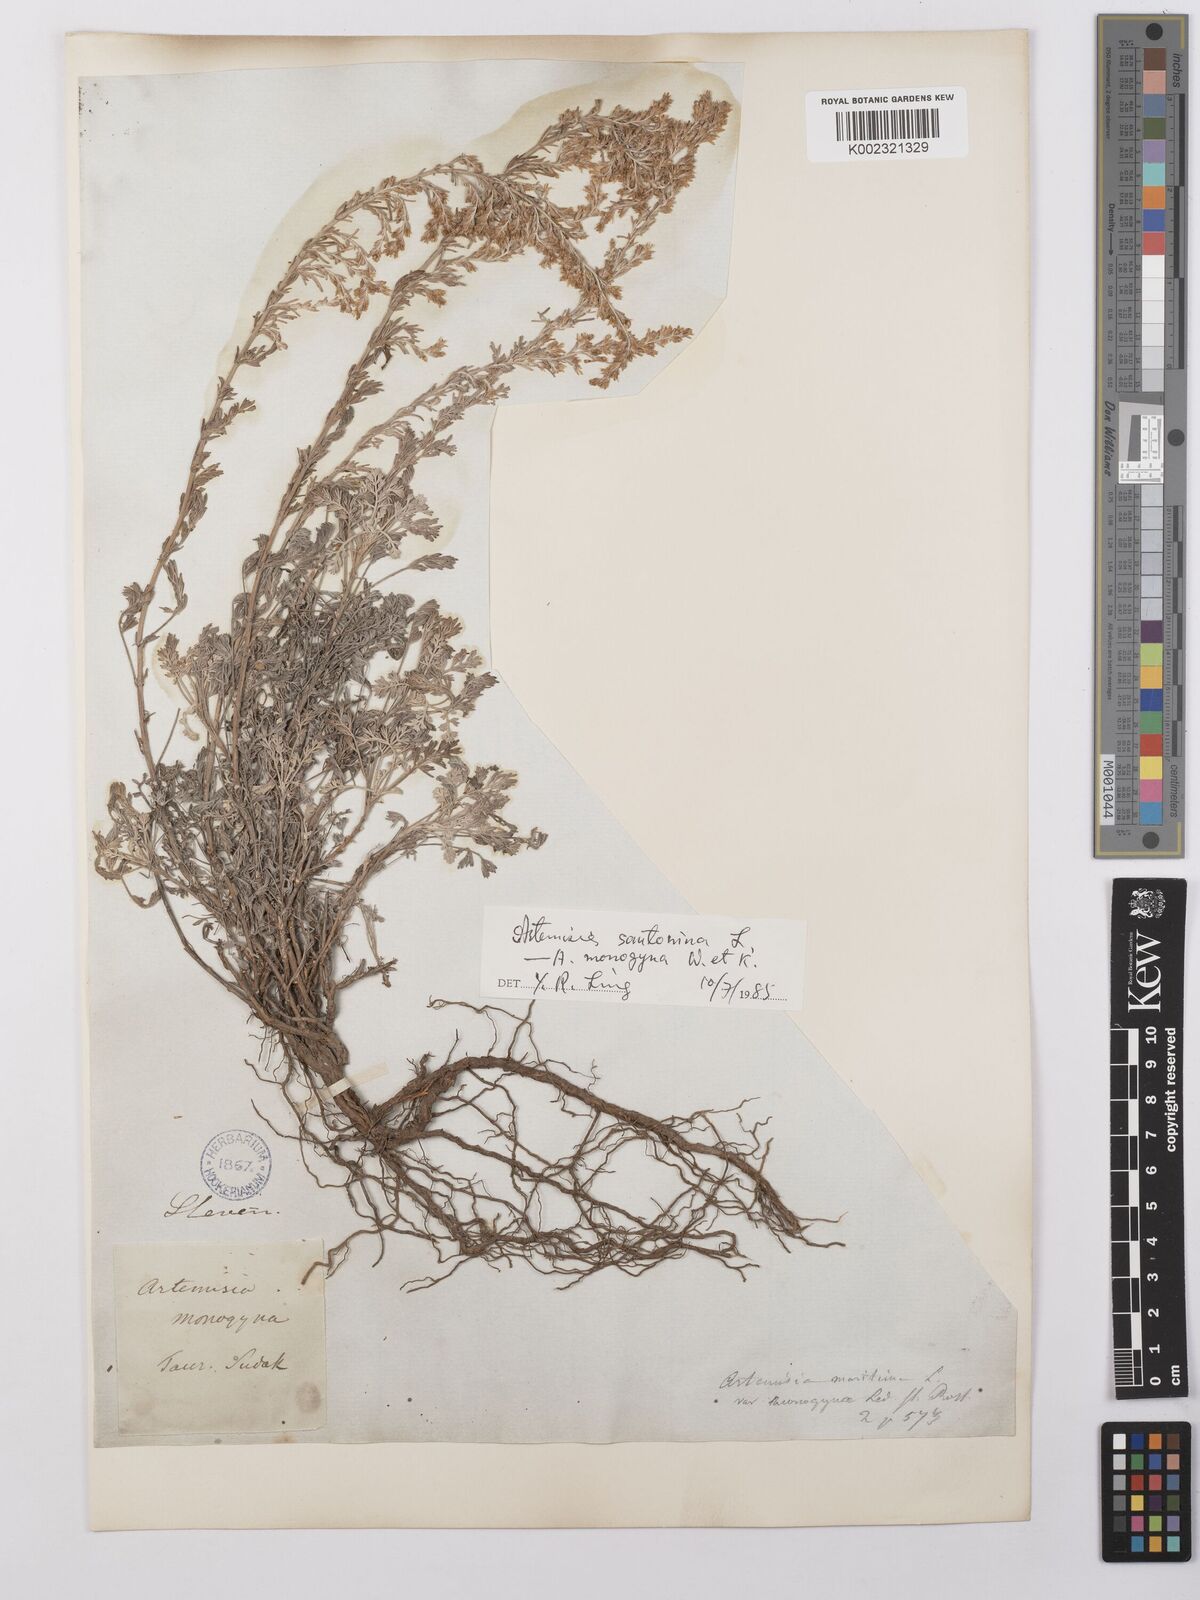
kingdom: Plantae
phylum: Tracheophyta
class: Magnoliopsida
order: Asterales
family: Asteraceae
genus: Artemisia
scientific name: Artemisia taurica
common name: Tauric wormwood
